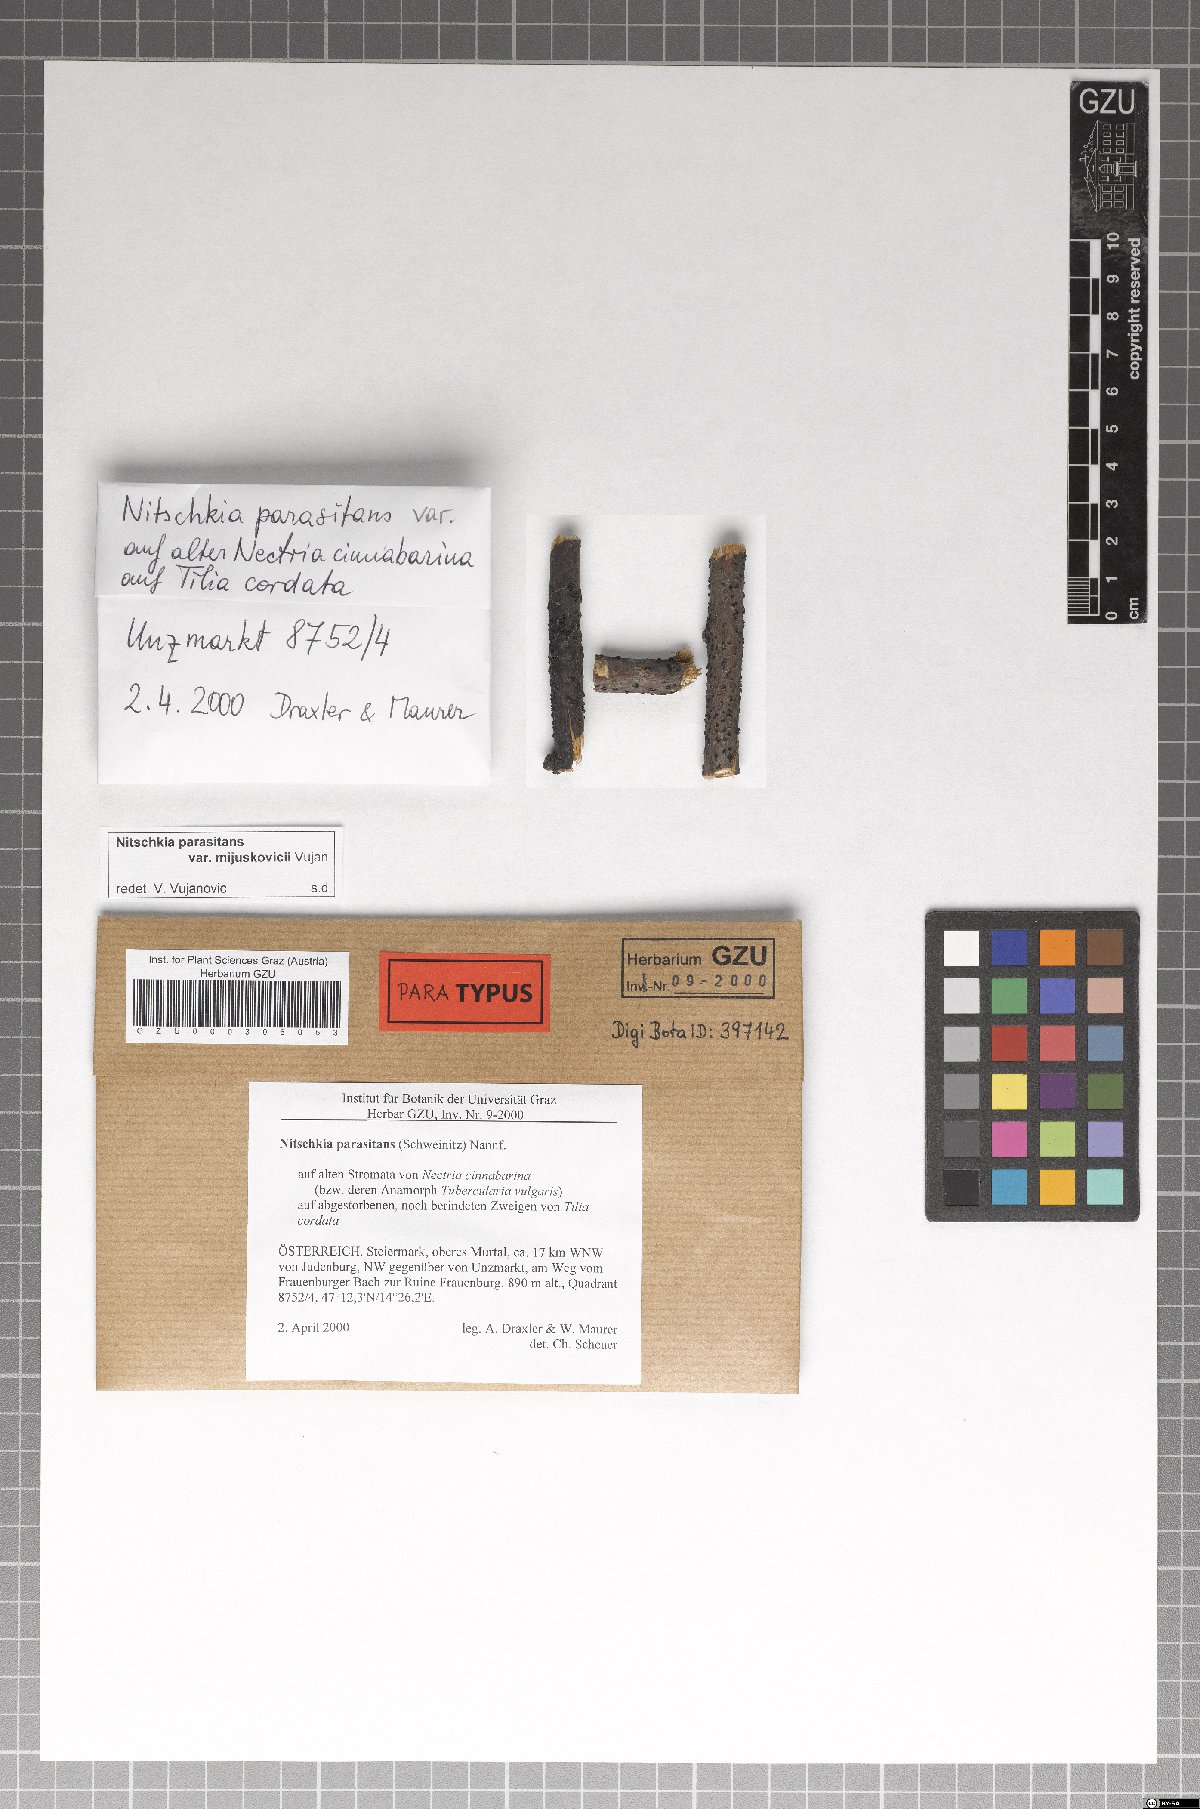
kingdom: Fungi
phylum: Ascomycota
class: Sordariomycetes
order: Coronophorales
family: Nitschkiaceae
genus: Nitschkia
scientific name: Nitschkia parasitans
